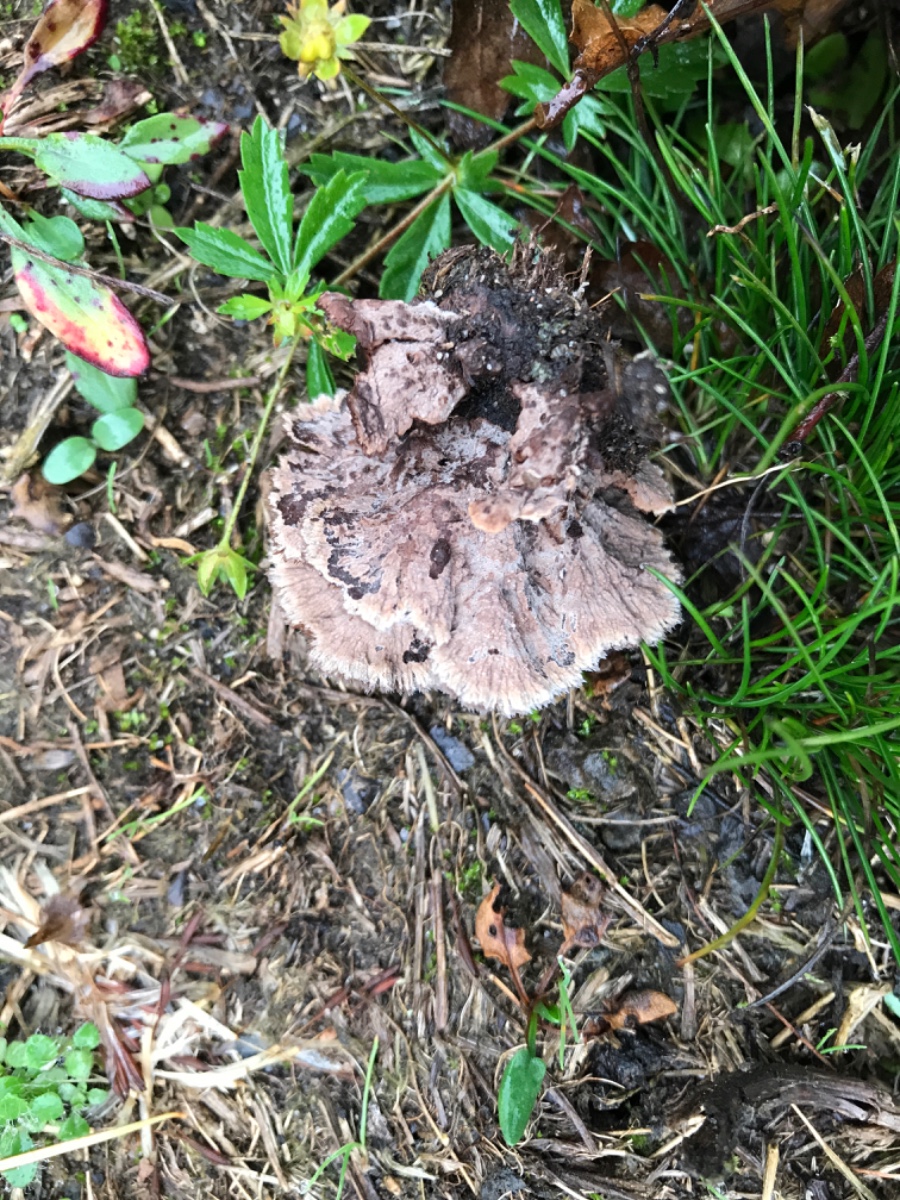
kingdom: Fungi
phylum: Basidiomycota
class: Agaricomycetes
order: Thelephorales
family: Thelephoraceae
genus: Thelephora
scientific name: Thelephora terrestris
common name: fliget frynsesvamp
